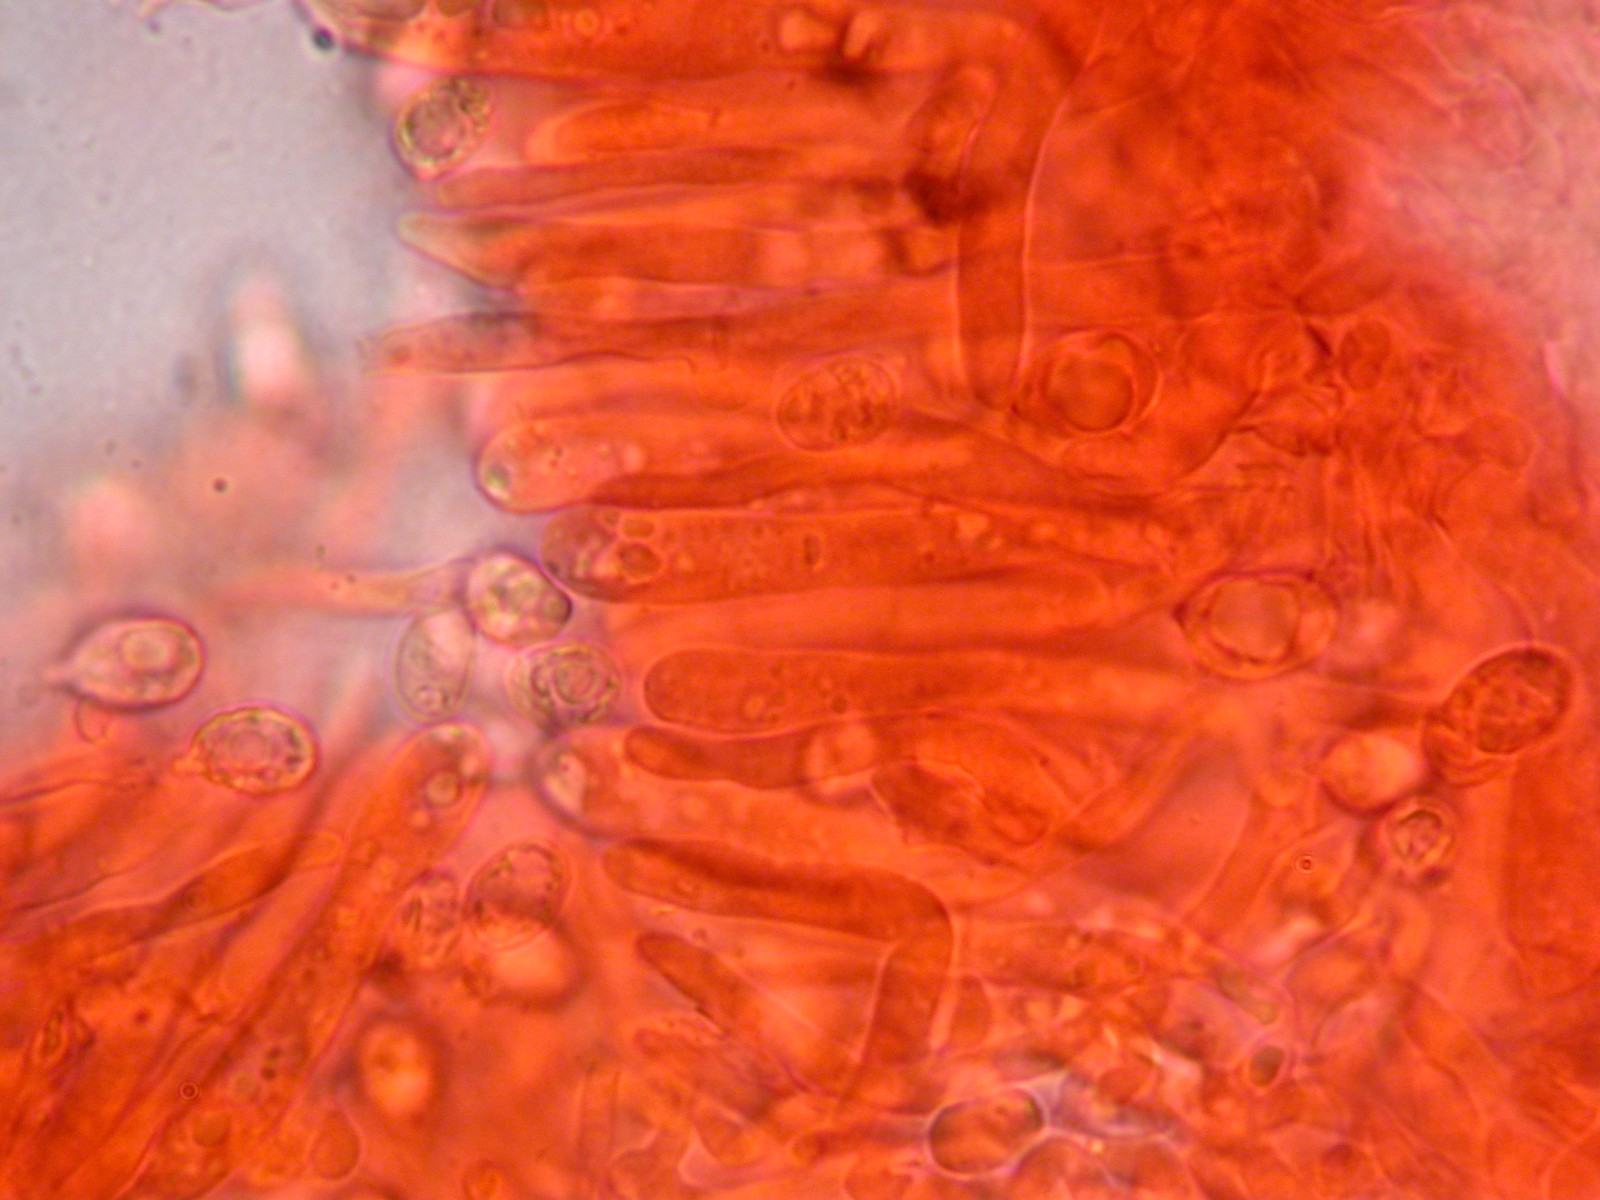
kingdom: Fungi
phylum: Basidiomycota
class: Agaricomycetes
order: Agaricales
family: Hygrophoraceae
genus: Cuphophyllus
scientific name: Cuphophyllus lacmus
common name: gråviolet vokshat
